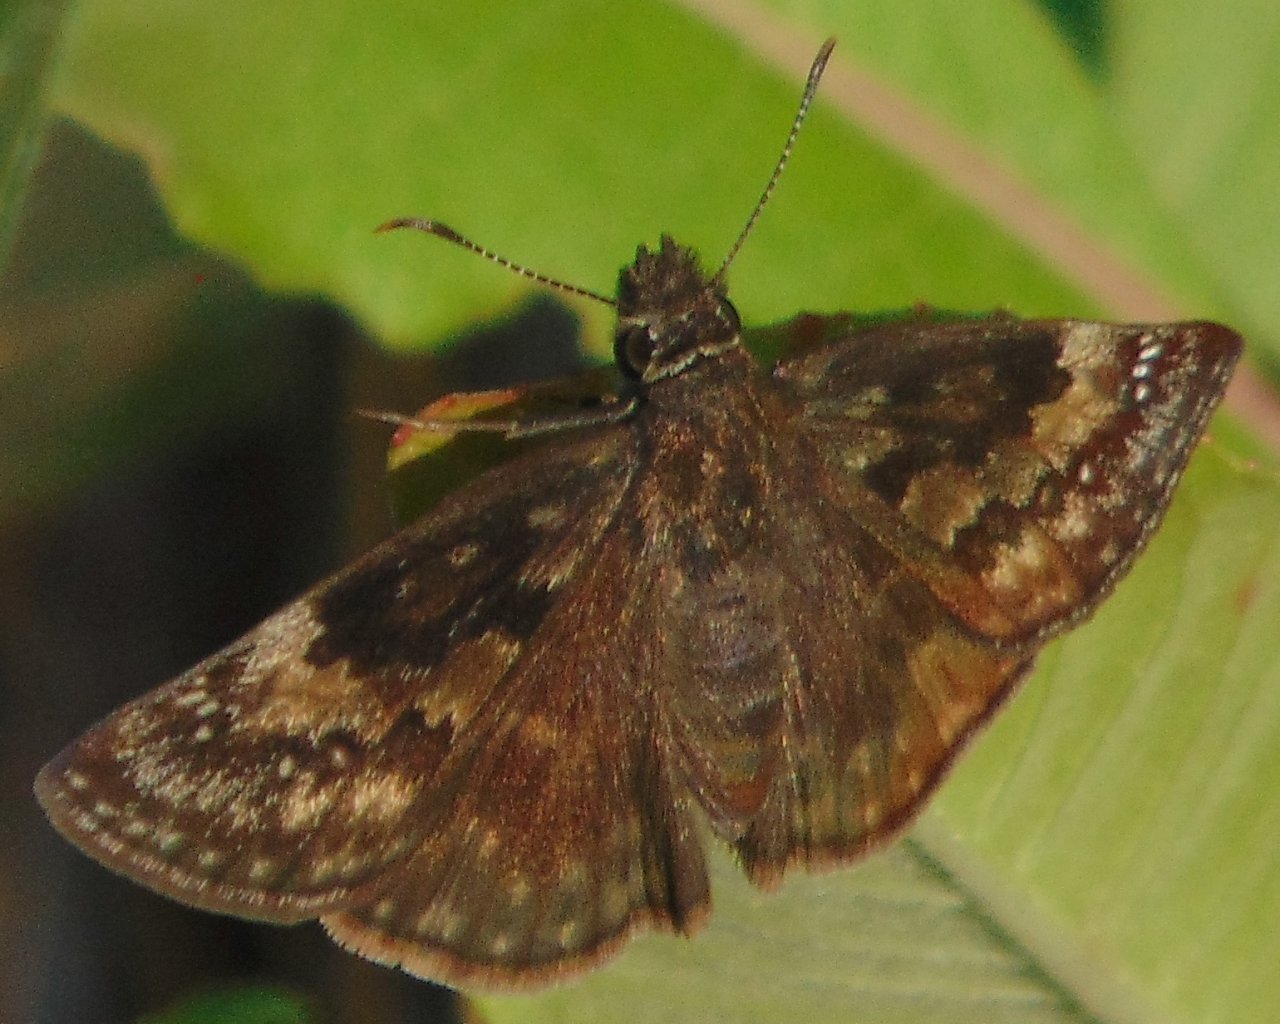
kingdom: Animalia
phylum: Arthropoda
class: Insecta
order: Lepidoptera
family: Hesperiidae
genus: Gesta
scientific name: Gesta
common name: Wild Indigo Duskywing
